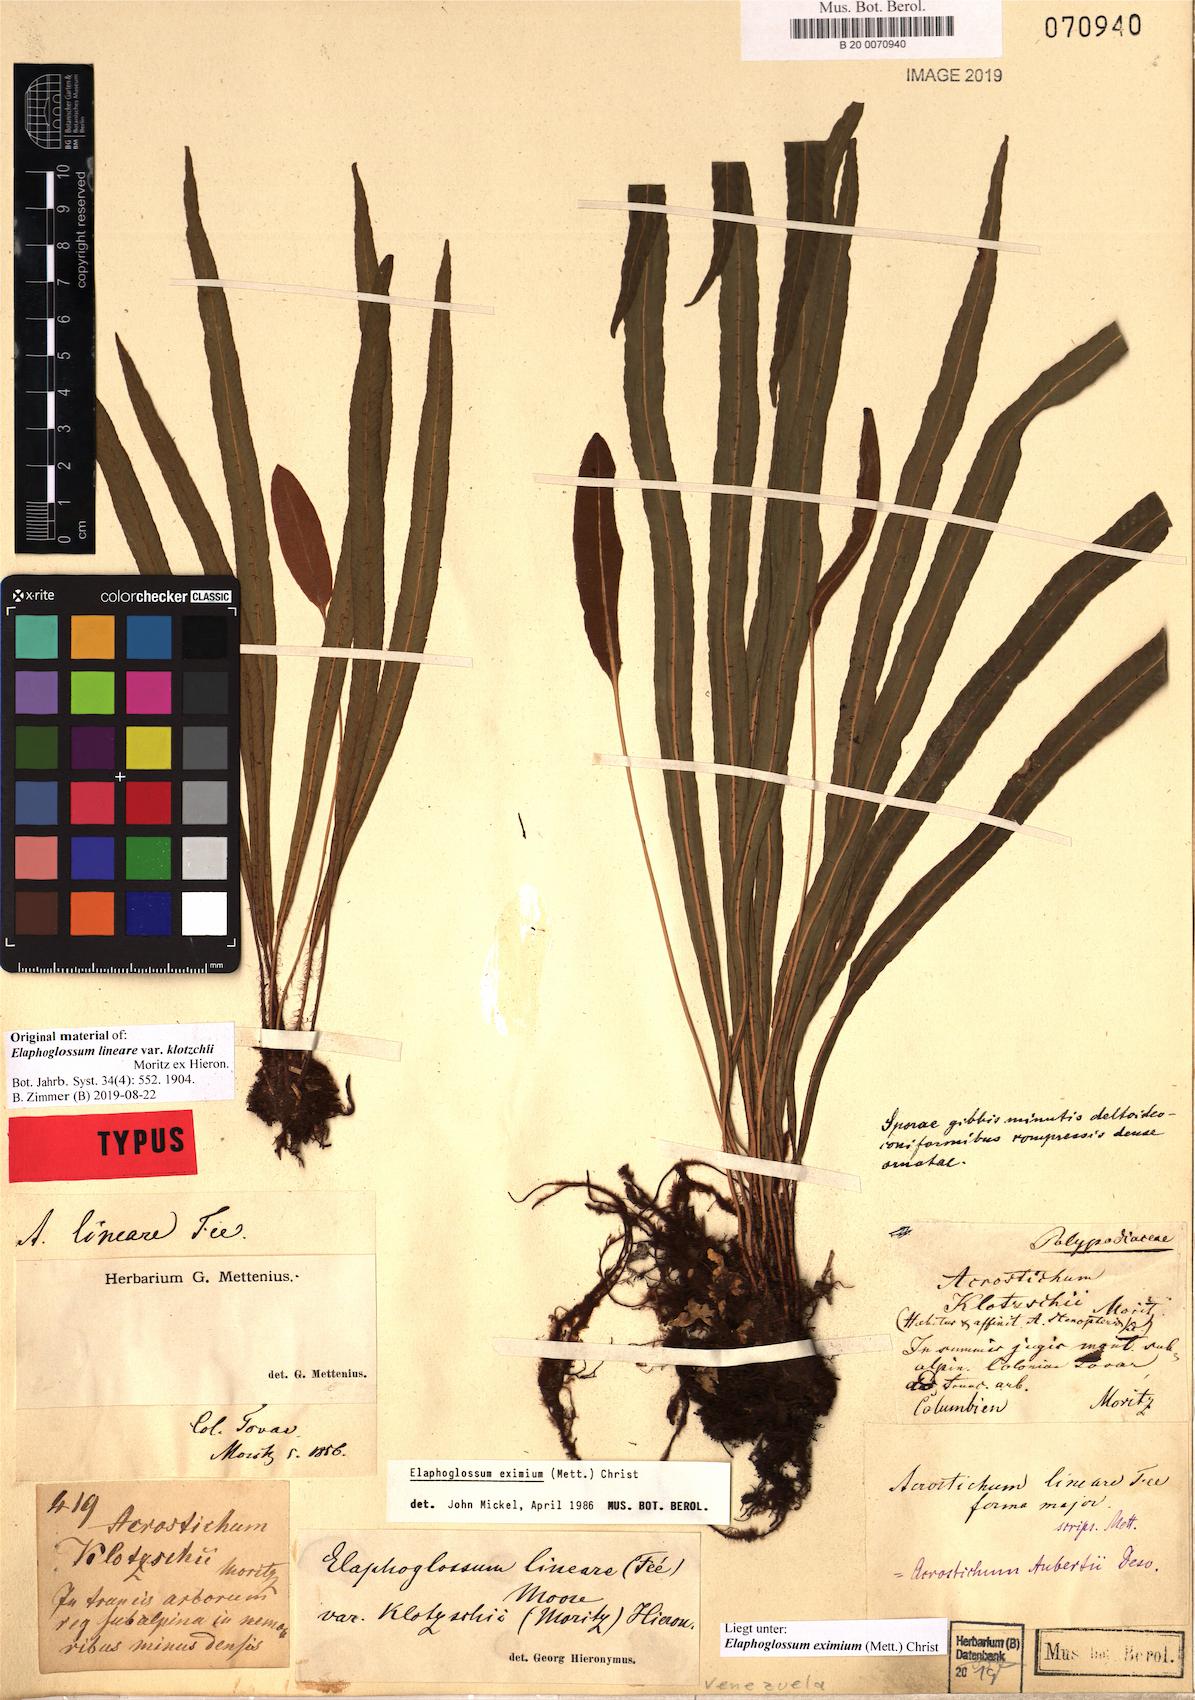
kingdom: Plantae
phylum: Tracheophyta
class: Polypodiopsida
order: Polypodiales
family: Dryopteridaceae
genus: Elaphoglossum
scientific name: Elaphoglossum eximium
